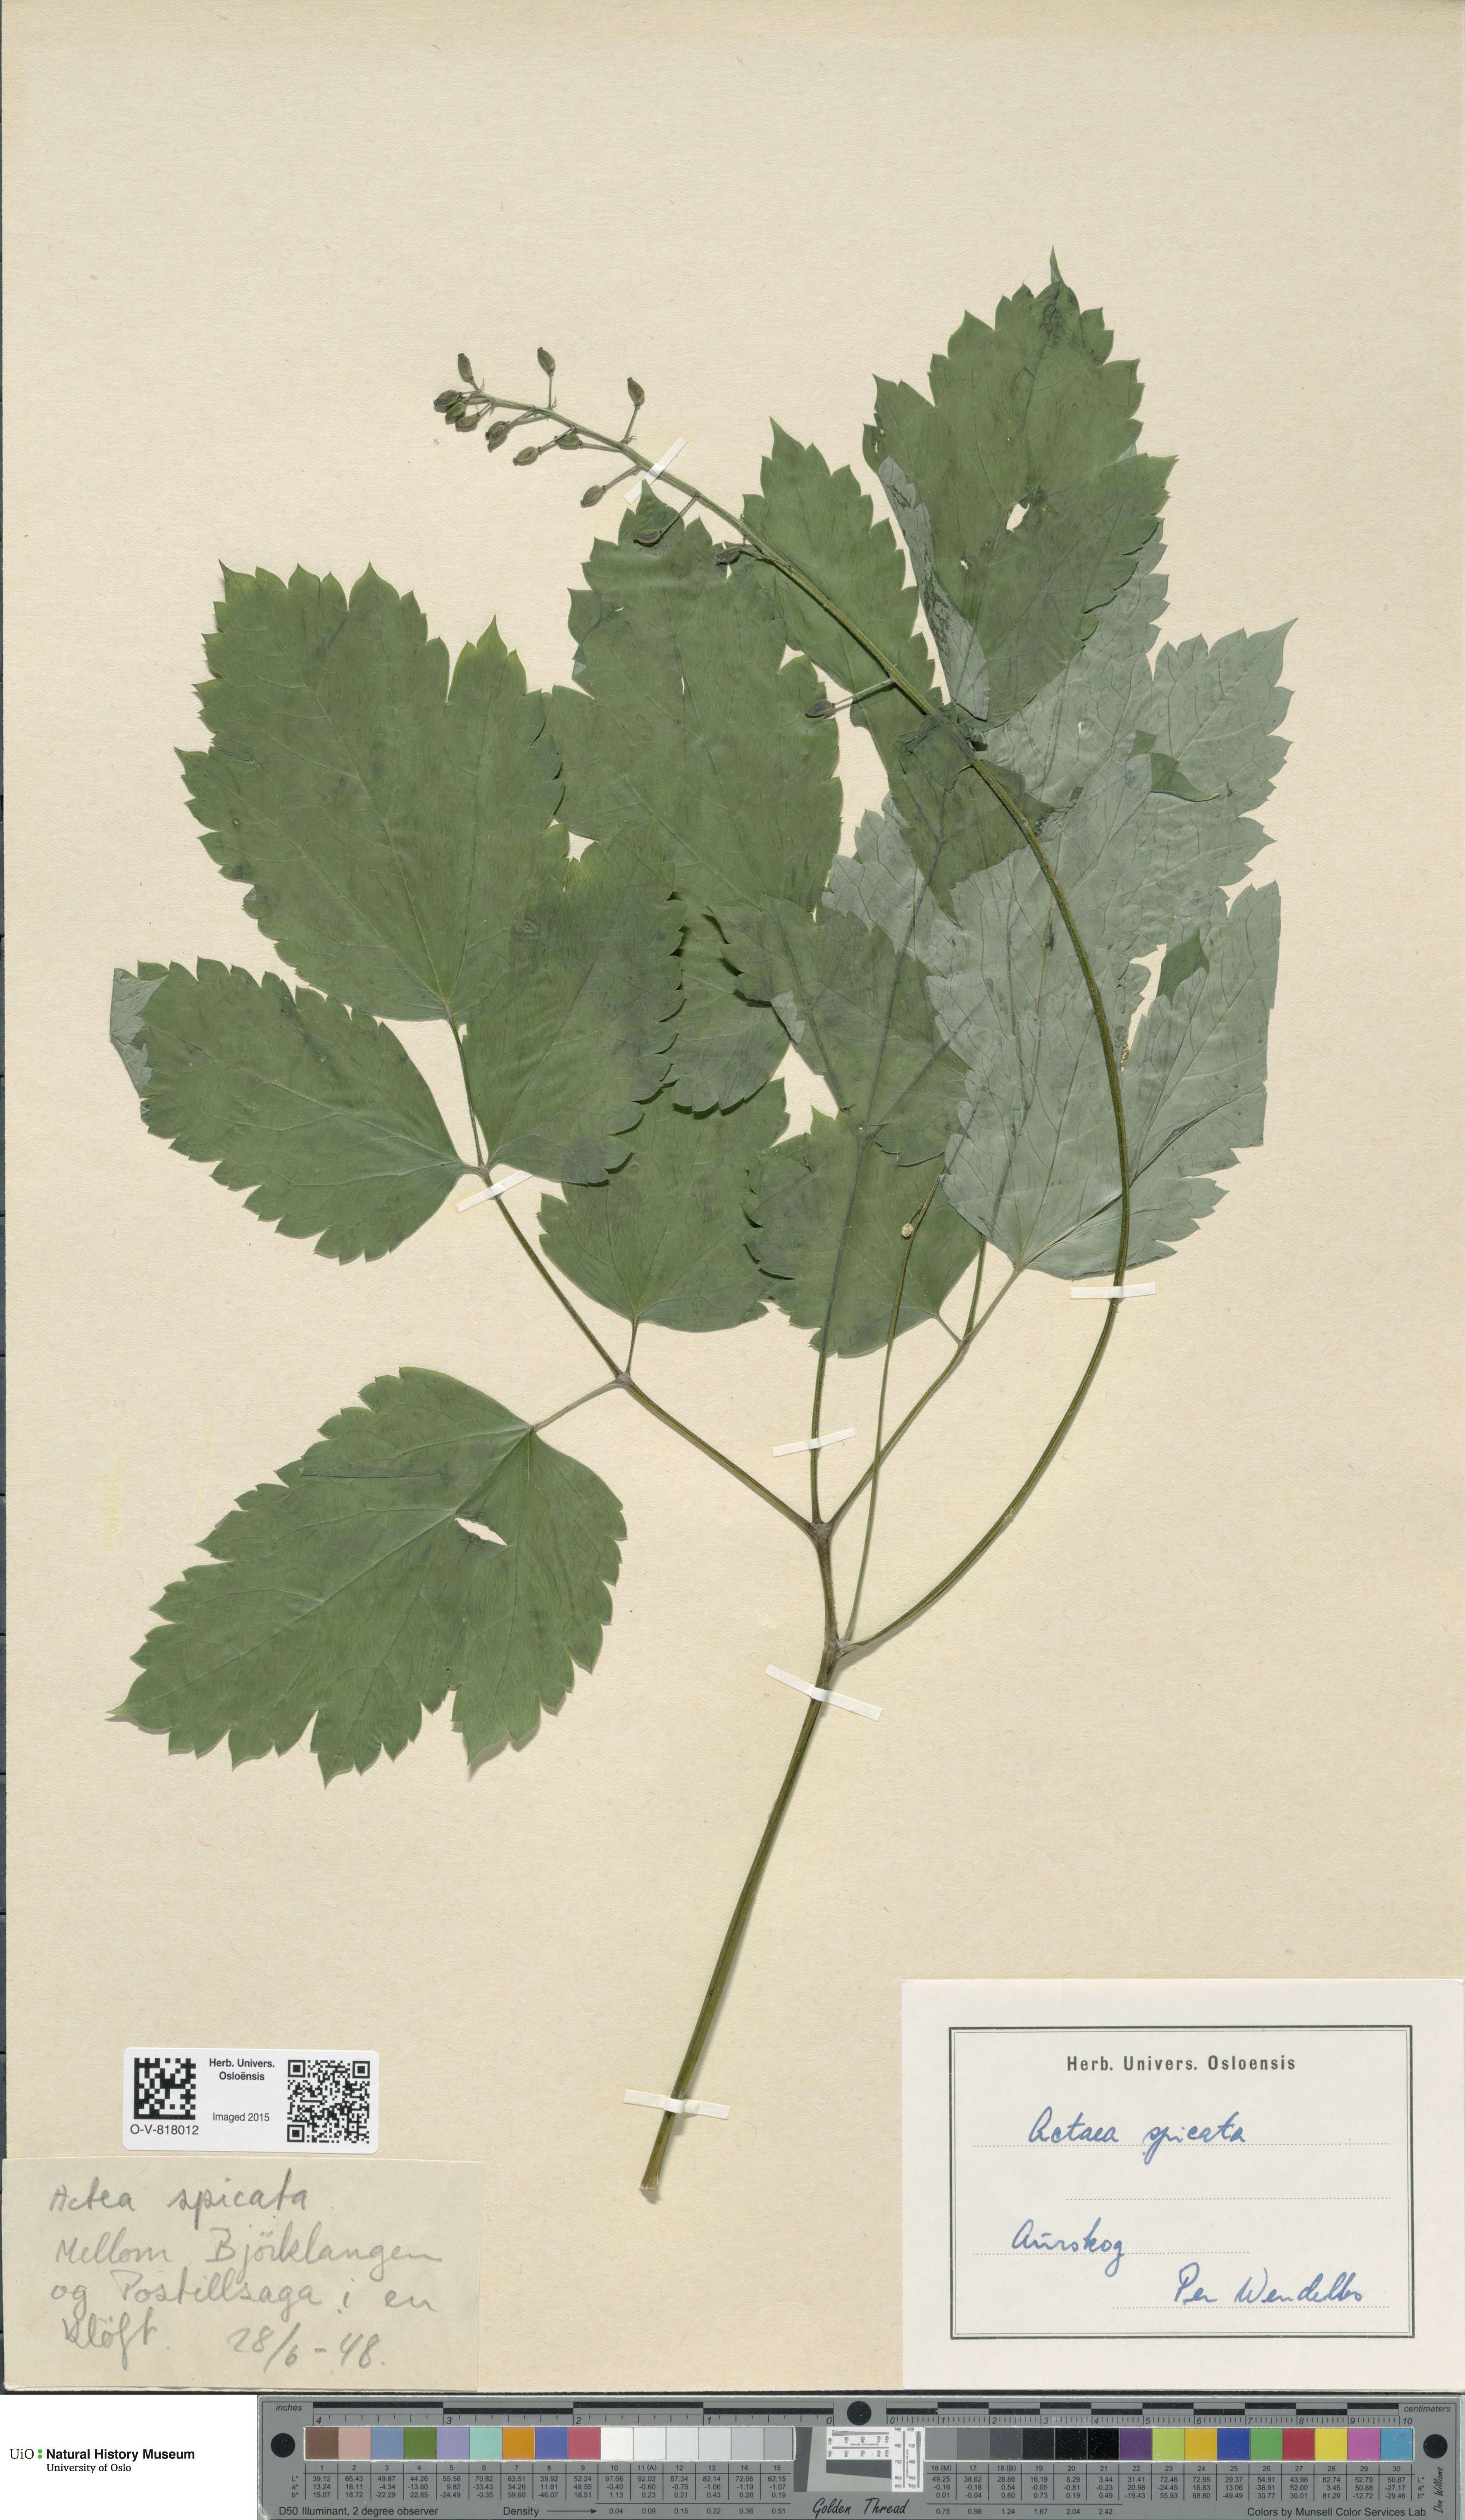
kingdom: Plantae
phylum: Tracheophyta
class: Magnoliopsida
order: Ranunculales
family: Ranunculaceae
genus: Actaea
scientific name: Actaea spicata
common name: Baneberry
